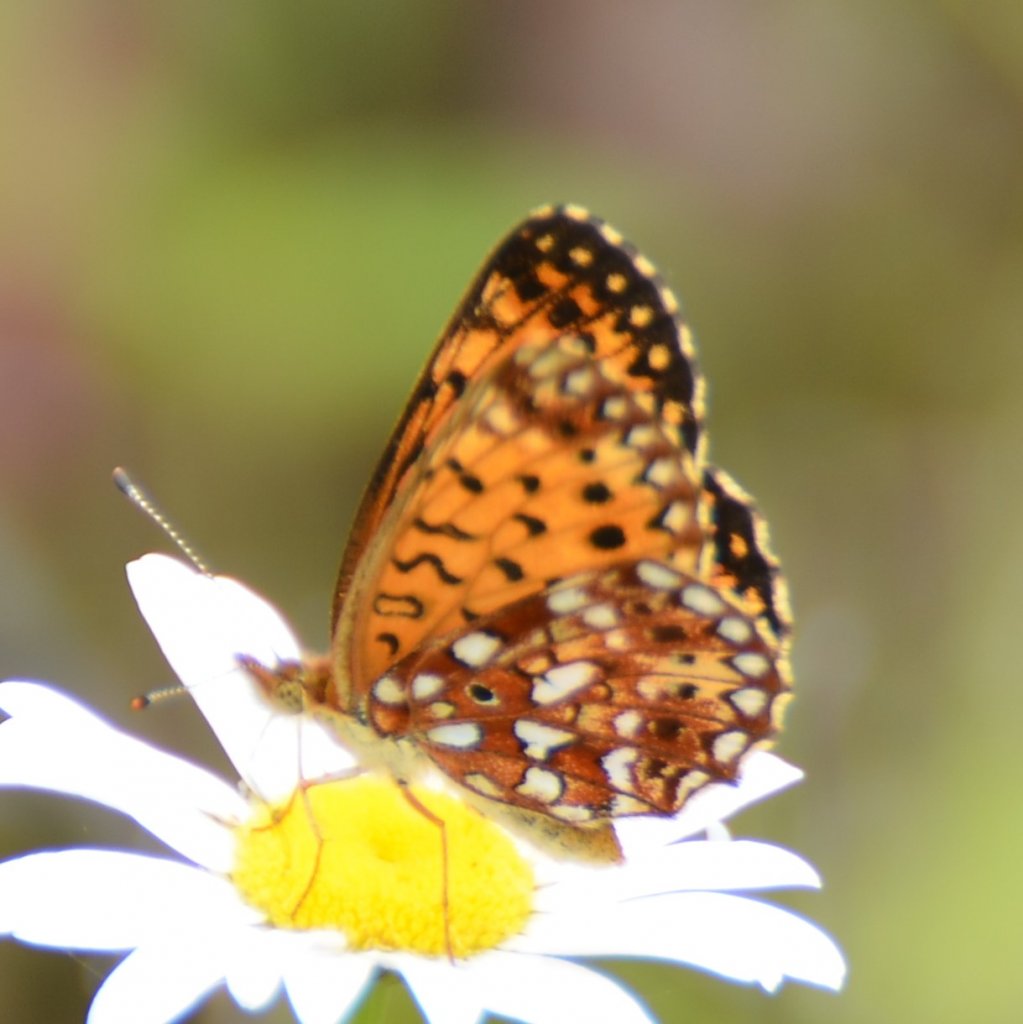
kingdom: Animalia
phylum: Arthropoda
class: Insecta
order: Lepidoptera
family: Nymphalidae
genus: Boloria
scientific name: Boloria selene
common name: Silver-bordered Fritillary
